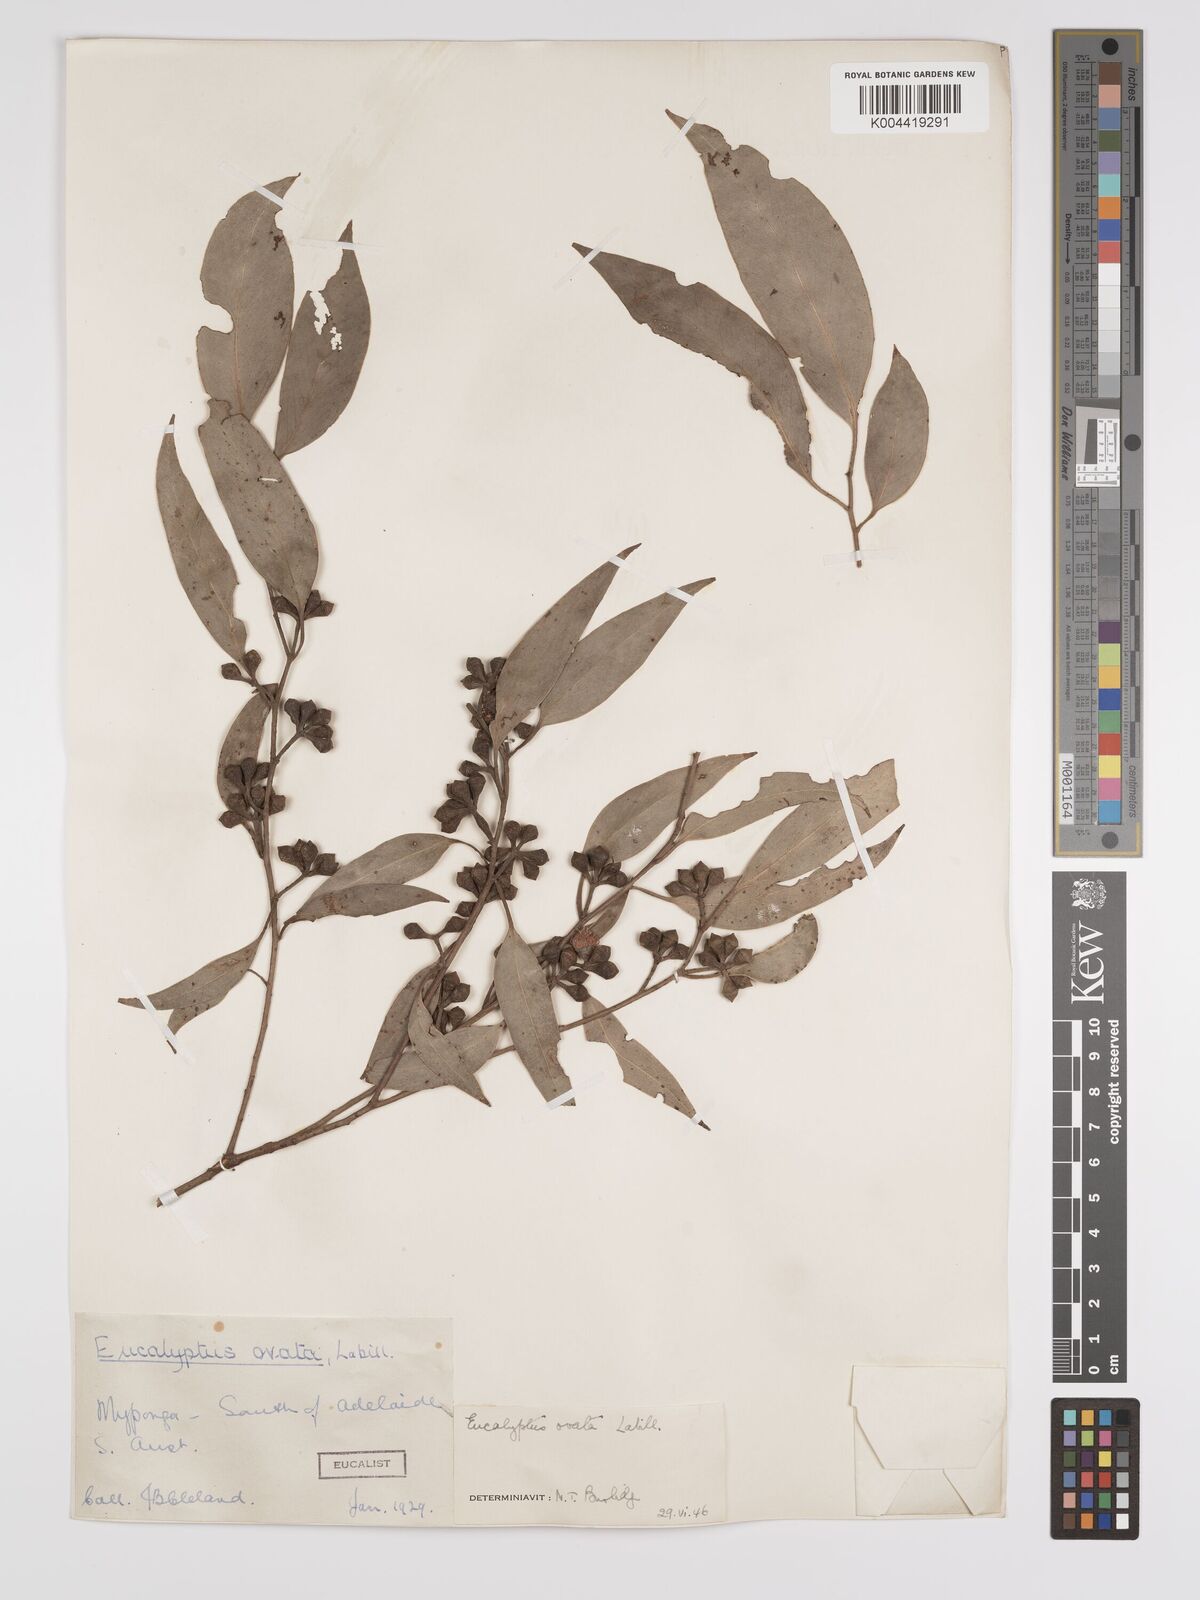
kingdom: Plantae
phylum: Tracheophyta
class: Magnoliopsida
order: Myrtales
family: Myrtaceae
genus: Eucalyptus
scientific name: Eucalyptus ovata
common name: Black-gum
